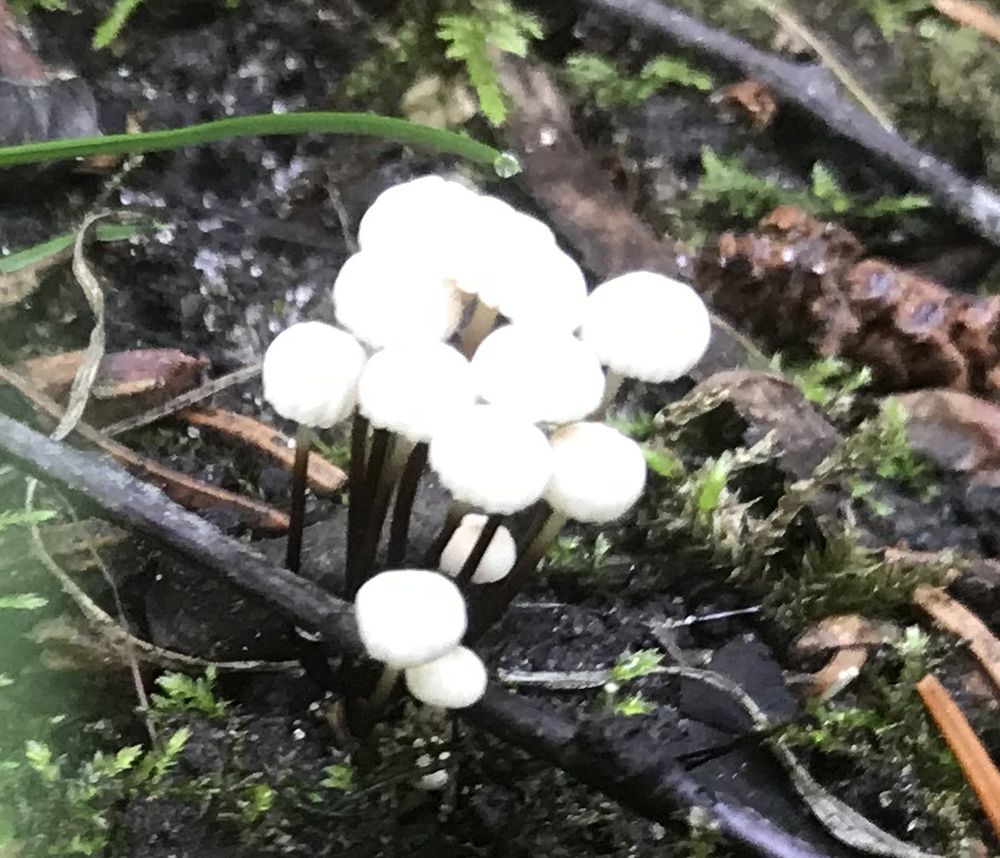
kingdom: Fungi
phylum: Basidiomycota
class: Agaricomycetes
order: Agaricales
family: Marasmiaceae
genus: Marasmius
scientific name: Marasmius rotula
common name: hjul-bruskhat
